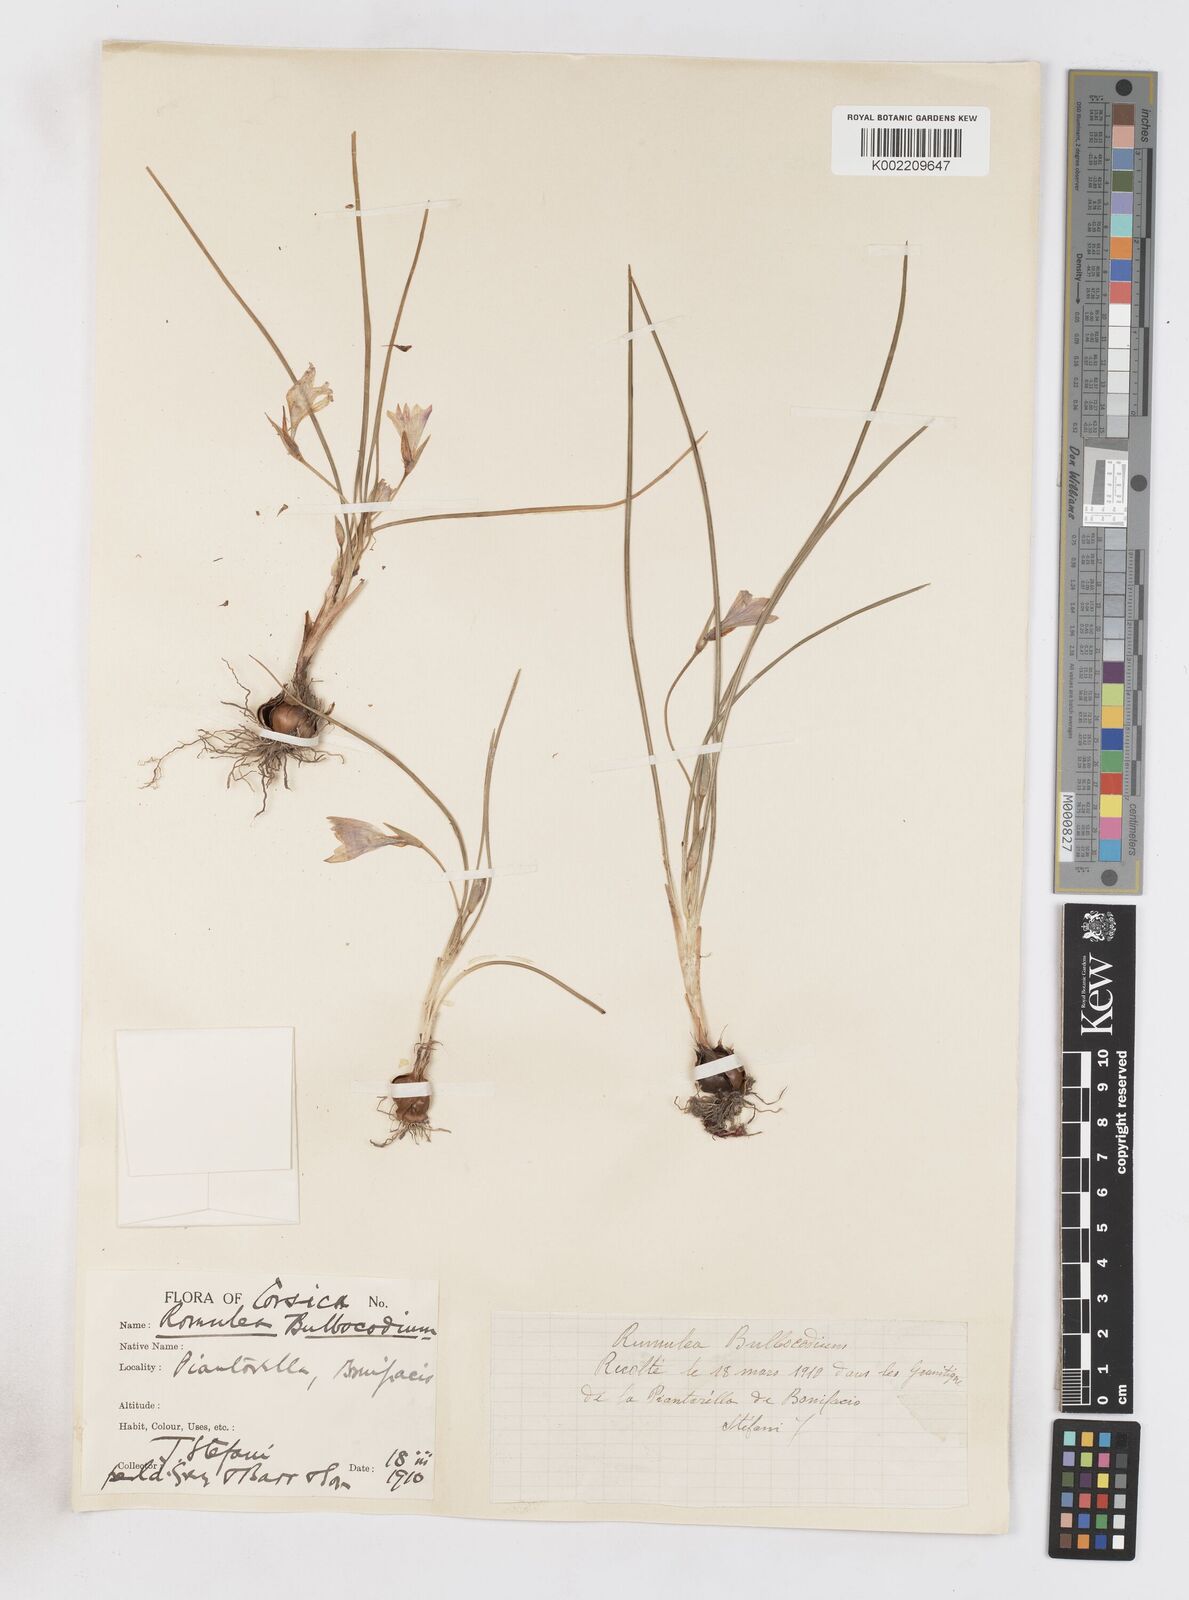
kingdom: Plantae
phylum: Tracheophyta
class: Liliopsida
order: Asparagales
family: Iridaceae
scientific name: Iridaceae
